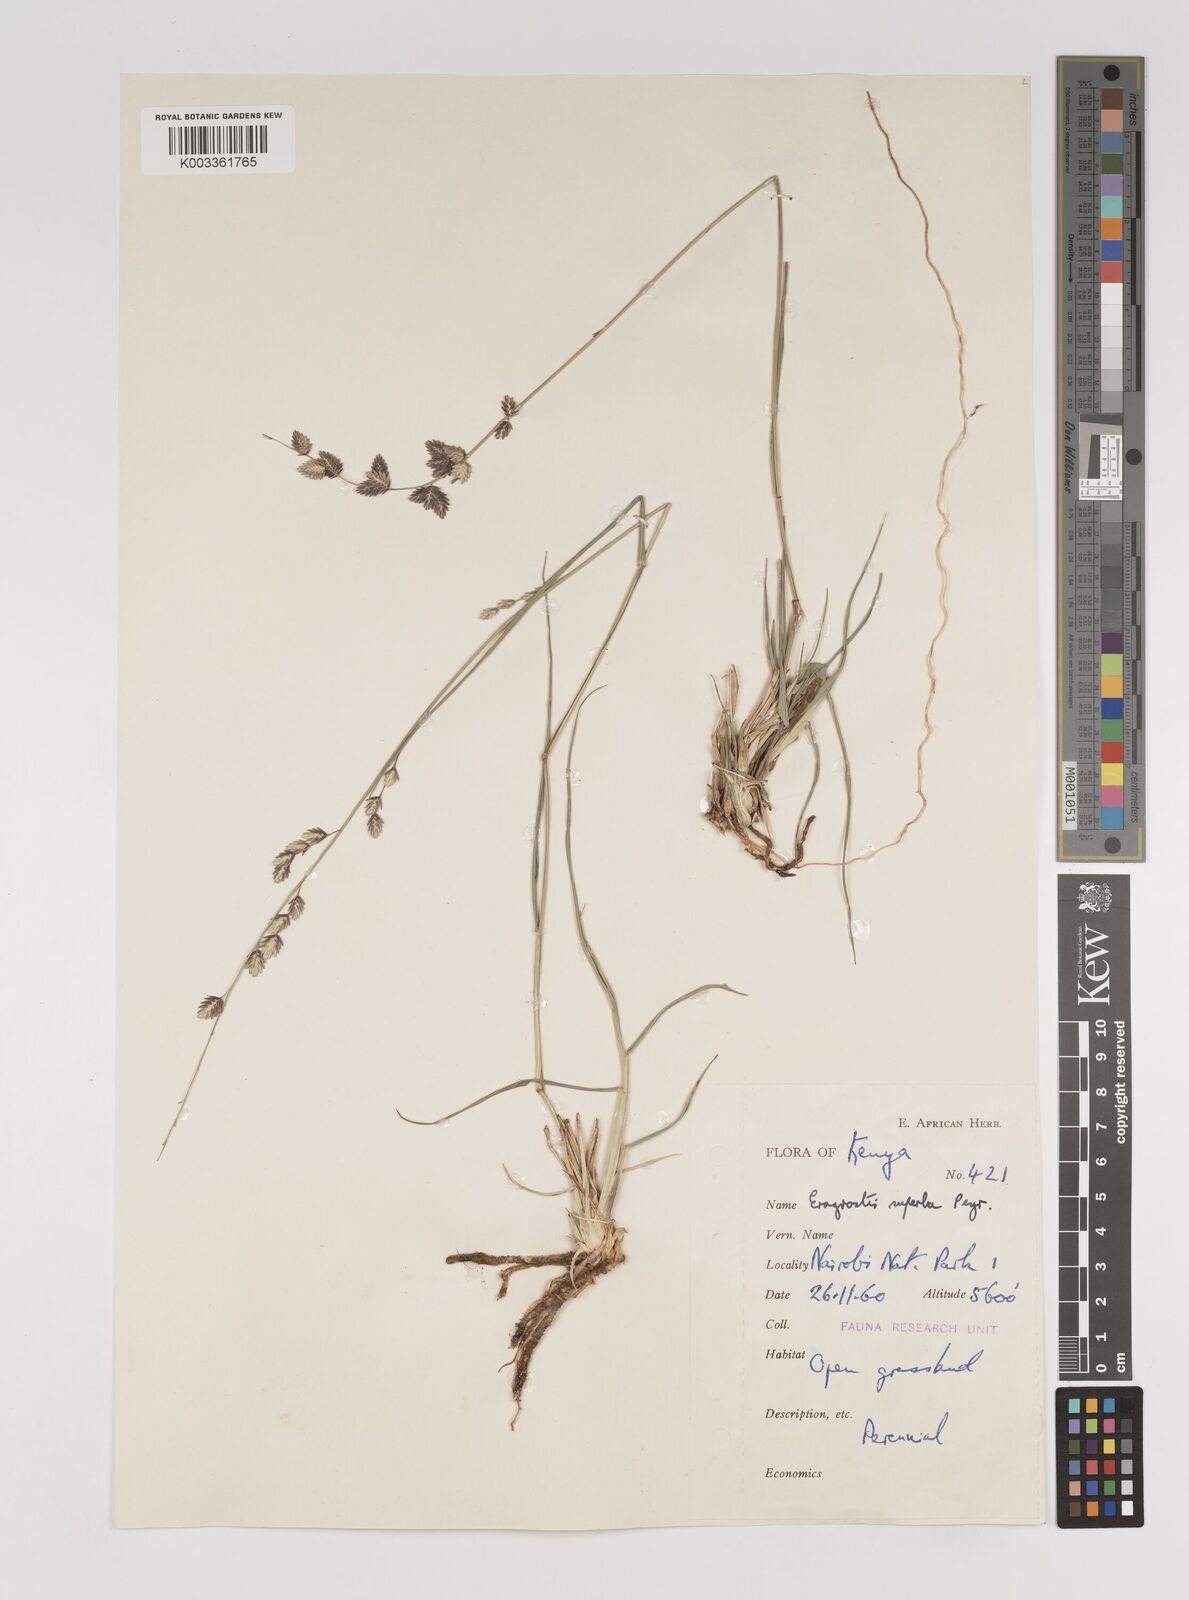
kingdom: Plantae
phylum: Tracheophyta
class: Liliopsida
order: Poales
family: Poaceae
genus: Eragrostis
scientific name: Eragrostis superba
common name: Wilman lovegrass
